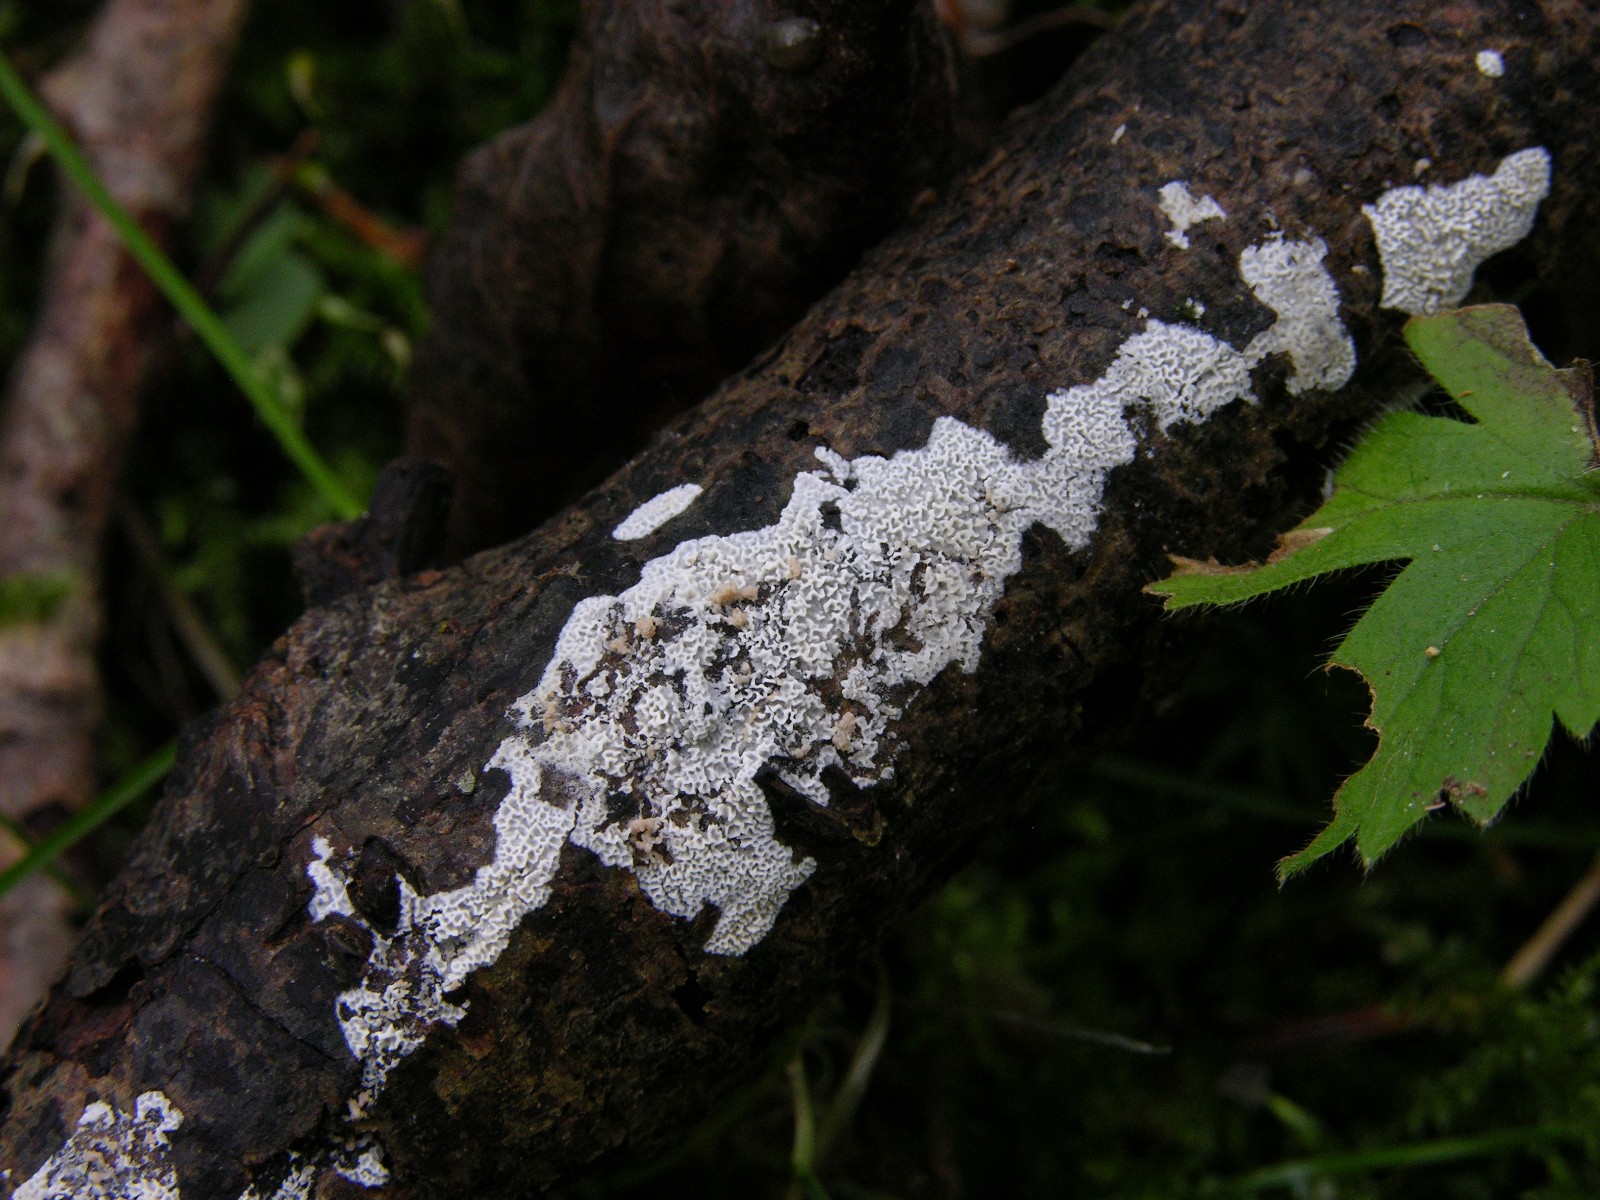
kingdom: Fungi
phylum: Basidiomycota
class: Agaricomycetes
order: Polyporales
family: Irpicaceae
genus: Ceriporia
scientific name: Ceriporia reticulata
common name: netagtig voksporesvamp
